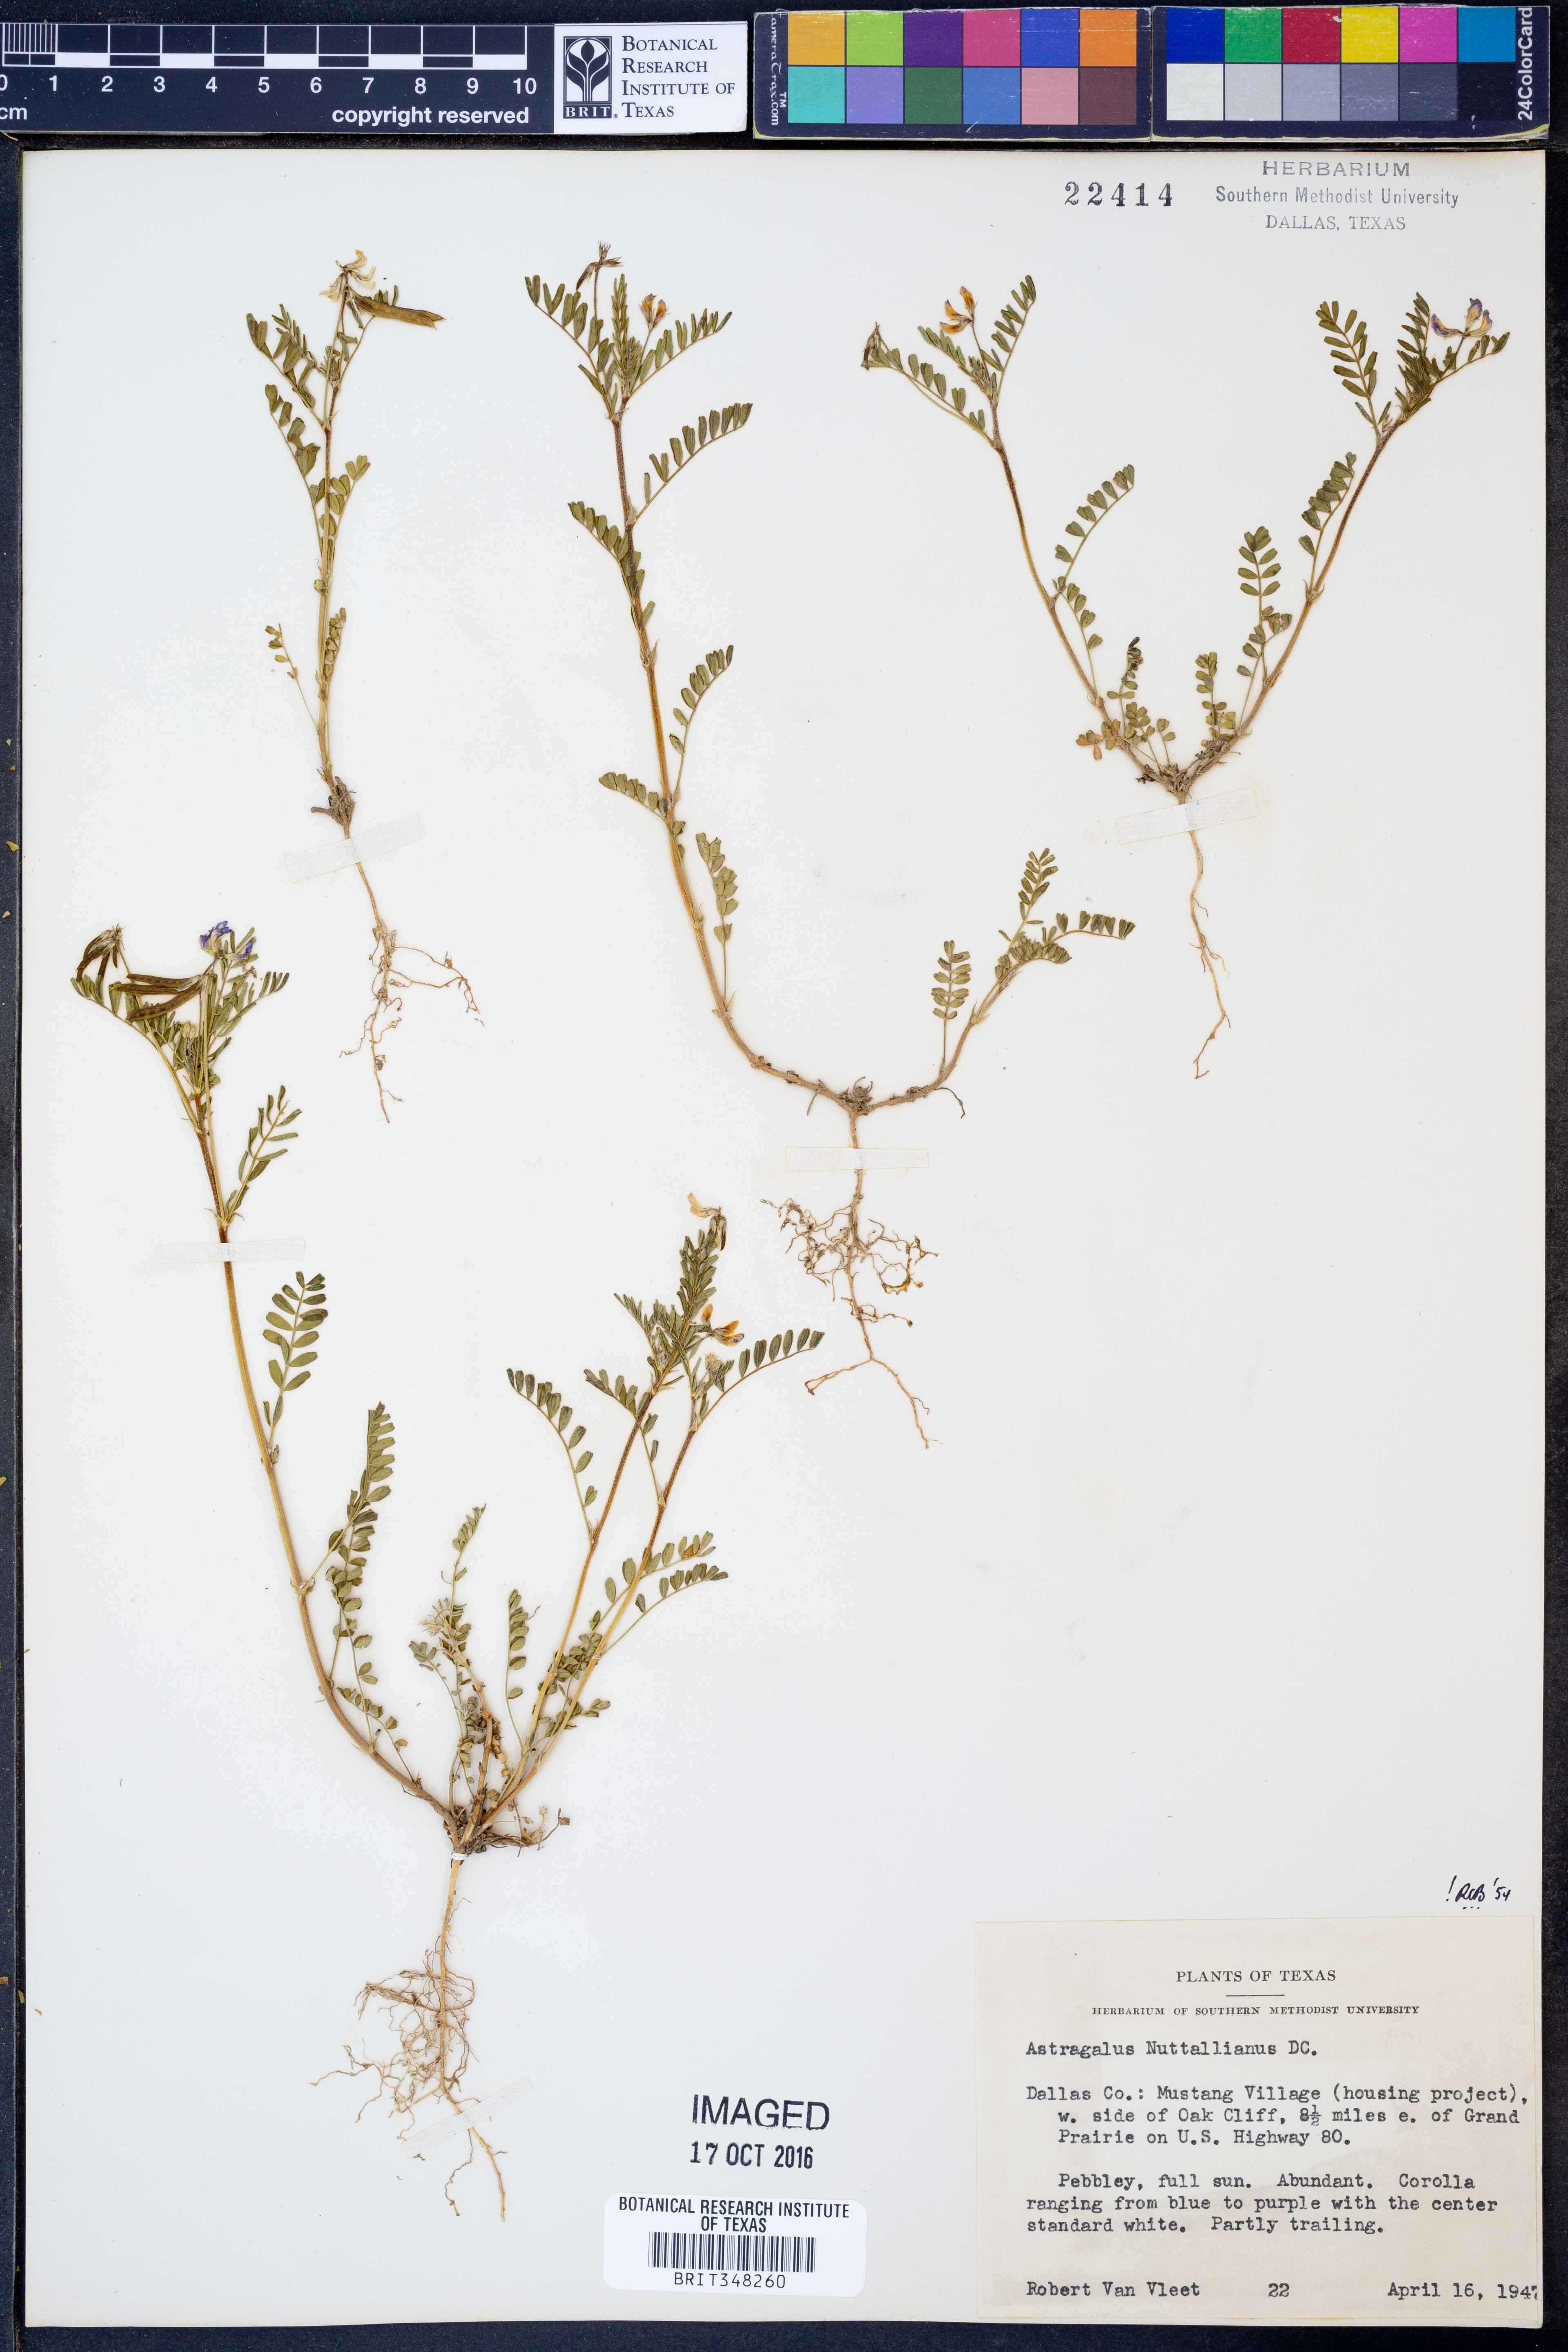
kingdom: Plantae
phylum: Tracheophyta
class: Magnoliopsida
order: Fabales
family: Fabaceae
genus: Astragalus
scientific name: Astragalus nuttallianus
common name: Smallflowered milkvetch
